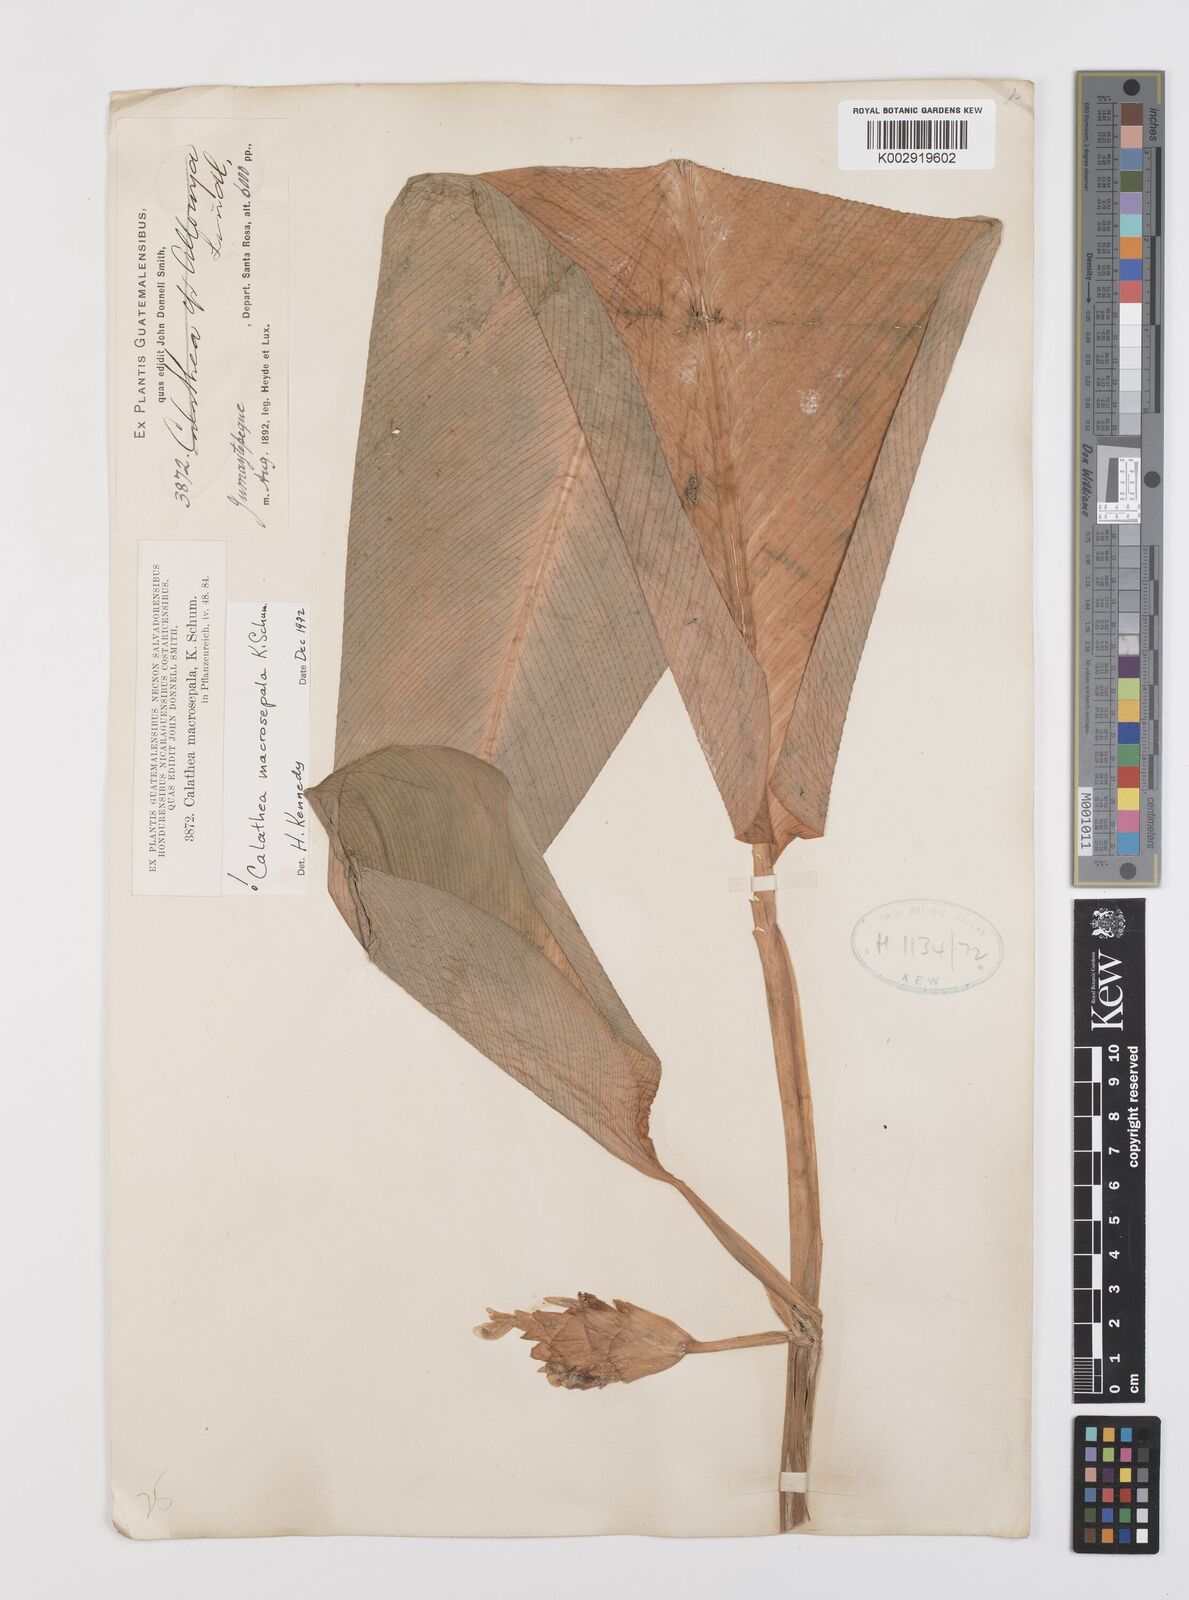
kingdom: Plantae
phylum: Tracheophyta
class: Liliopsida
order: Zingiberales
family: Marantaceae
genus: Goeppertia
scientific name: Goeppertia macrosepala
